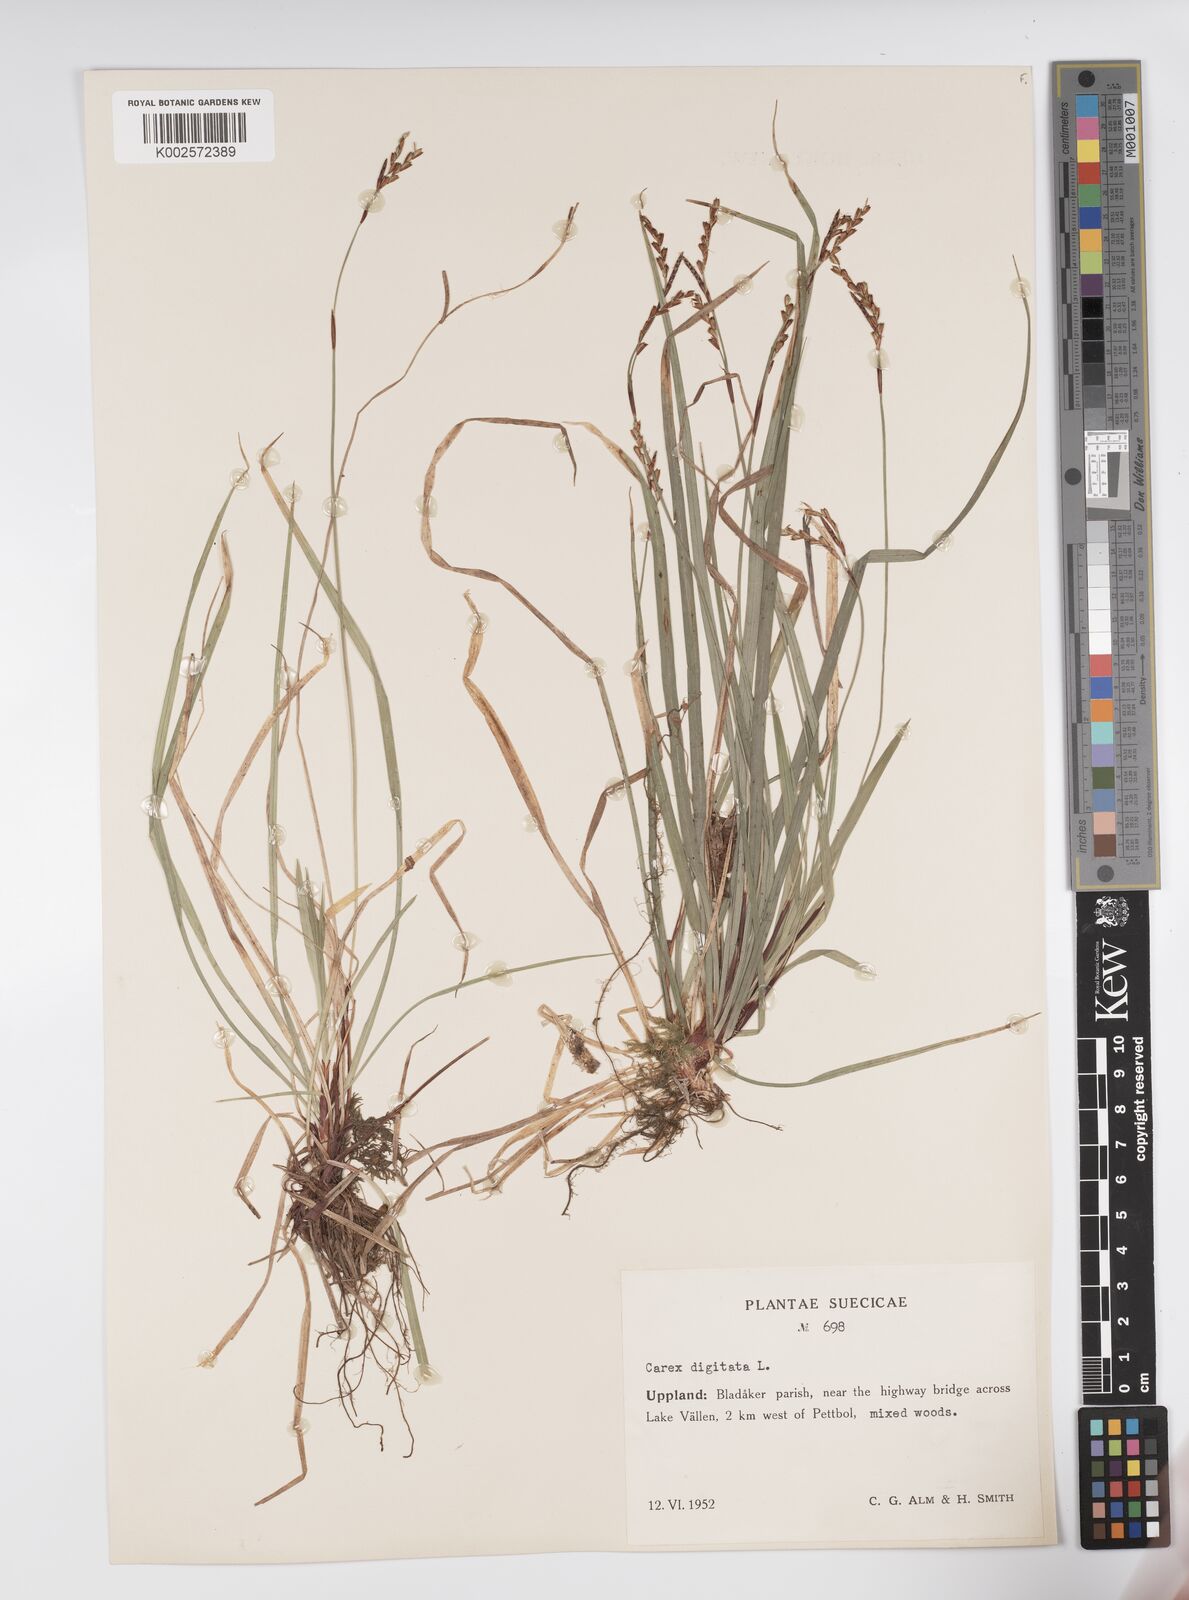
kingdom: Plantae
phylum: Tracheophyta
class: Liliopsida
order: Poales
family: Cyperaceae
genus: Carex
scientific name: Carex digitata
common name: Fingered sedge
